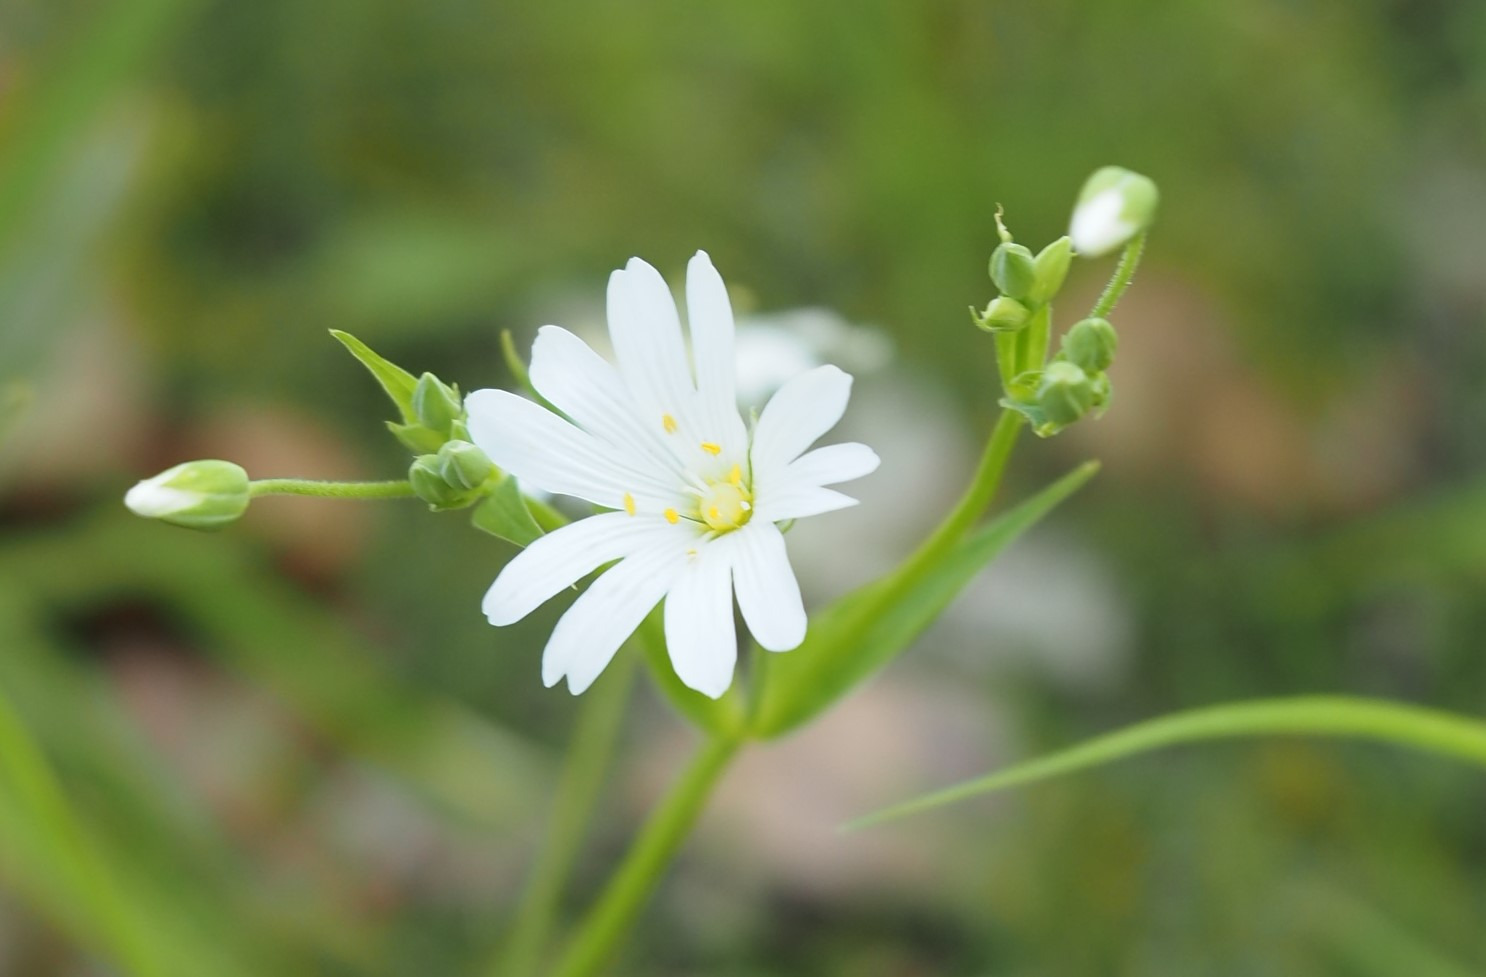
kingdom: Plantae
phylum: Tracheophyta
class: Magnoliopsida
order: Caryophyllales
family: Caryophyllaceae
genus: Rabelera
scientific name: Rabelera holostea
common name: Stor fladstjerne
